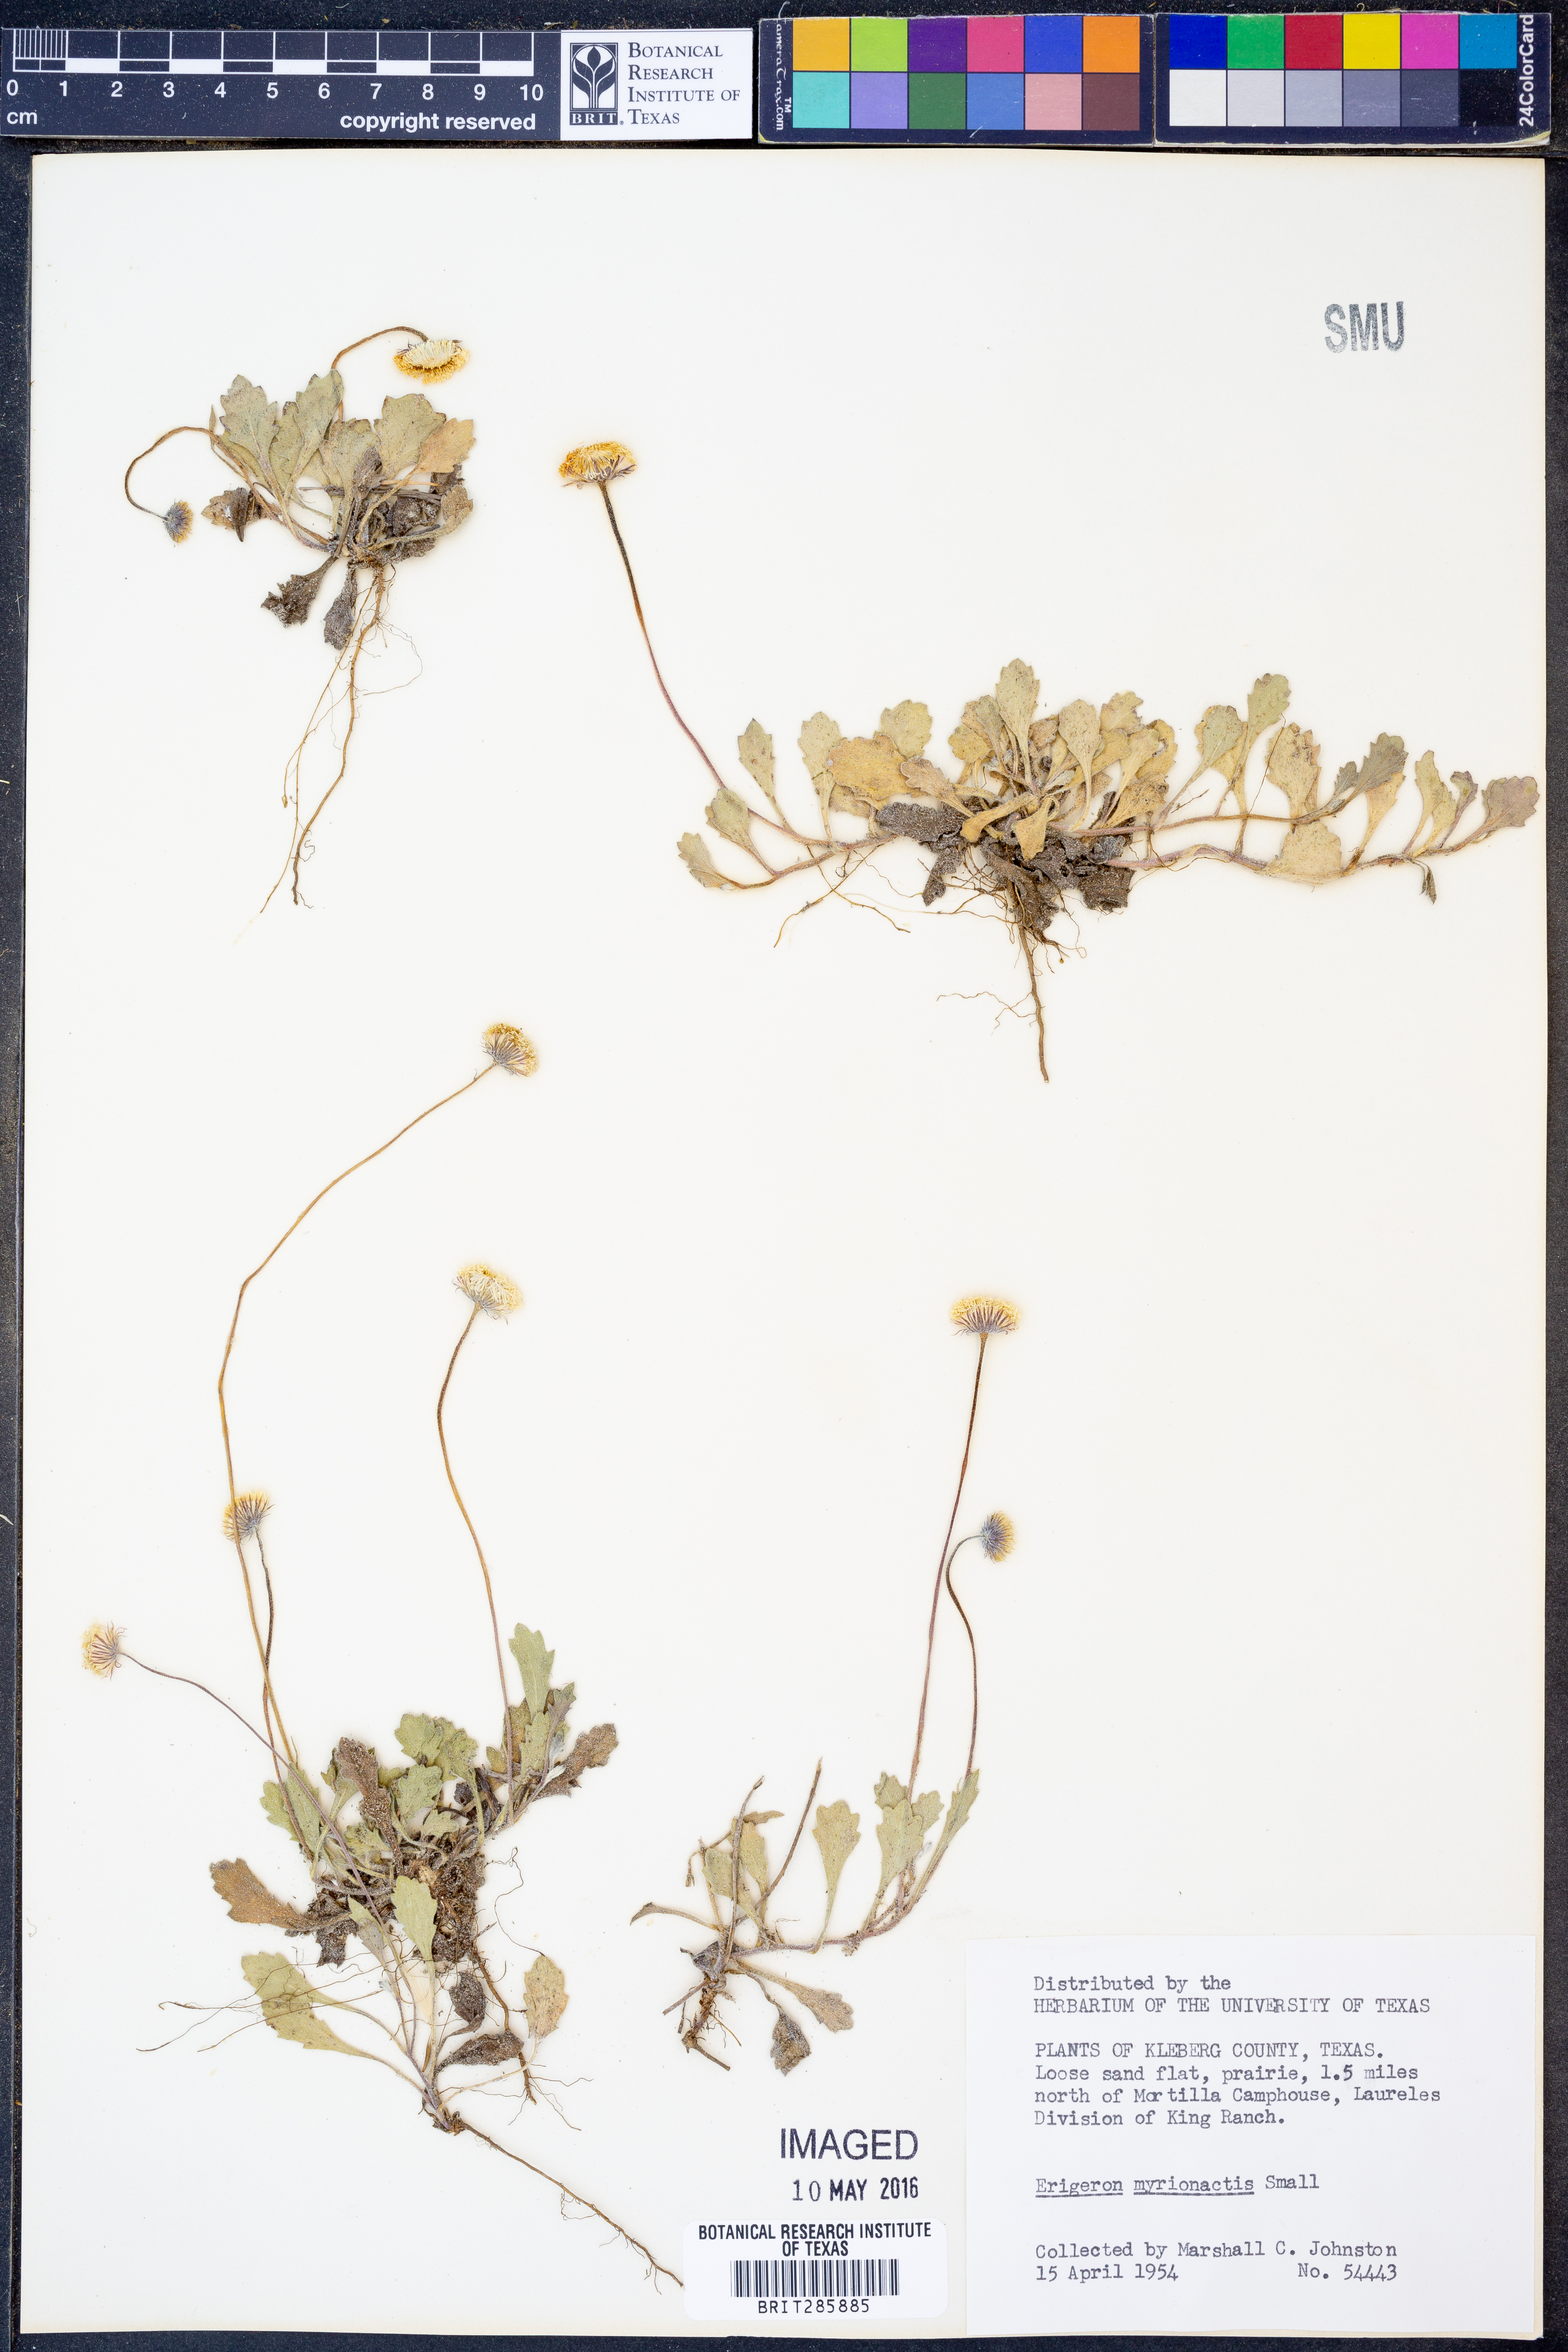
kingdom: Plantae
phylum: Tracheophyta
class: Magnoliopsida
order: Asterales
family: Asteraceae
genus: Erigeron
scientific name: Erigeron procumbens
